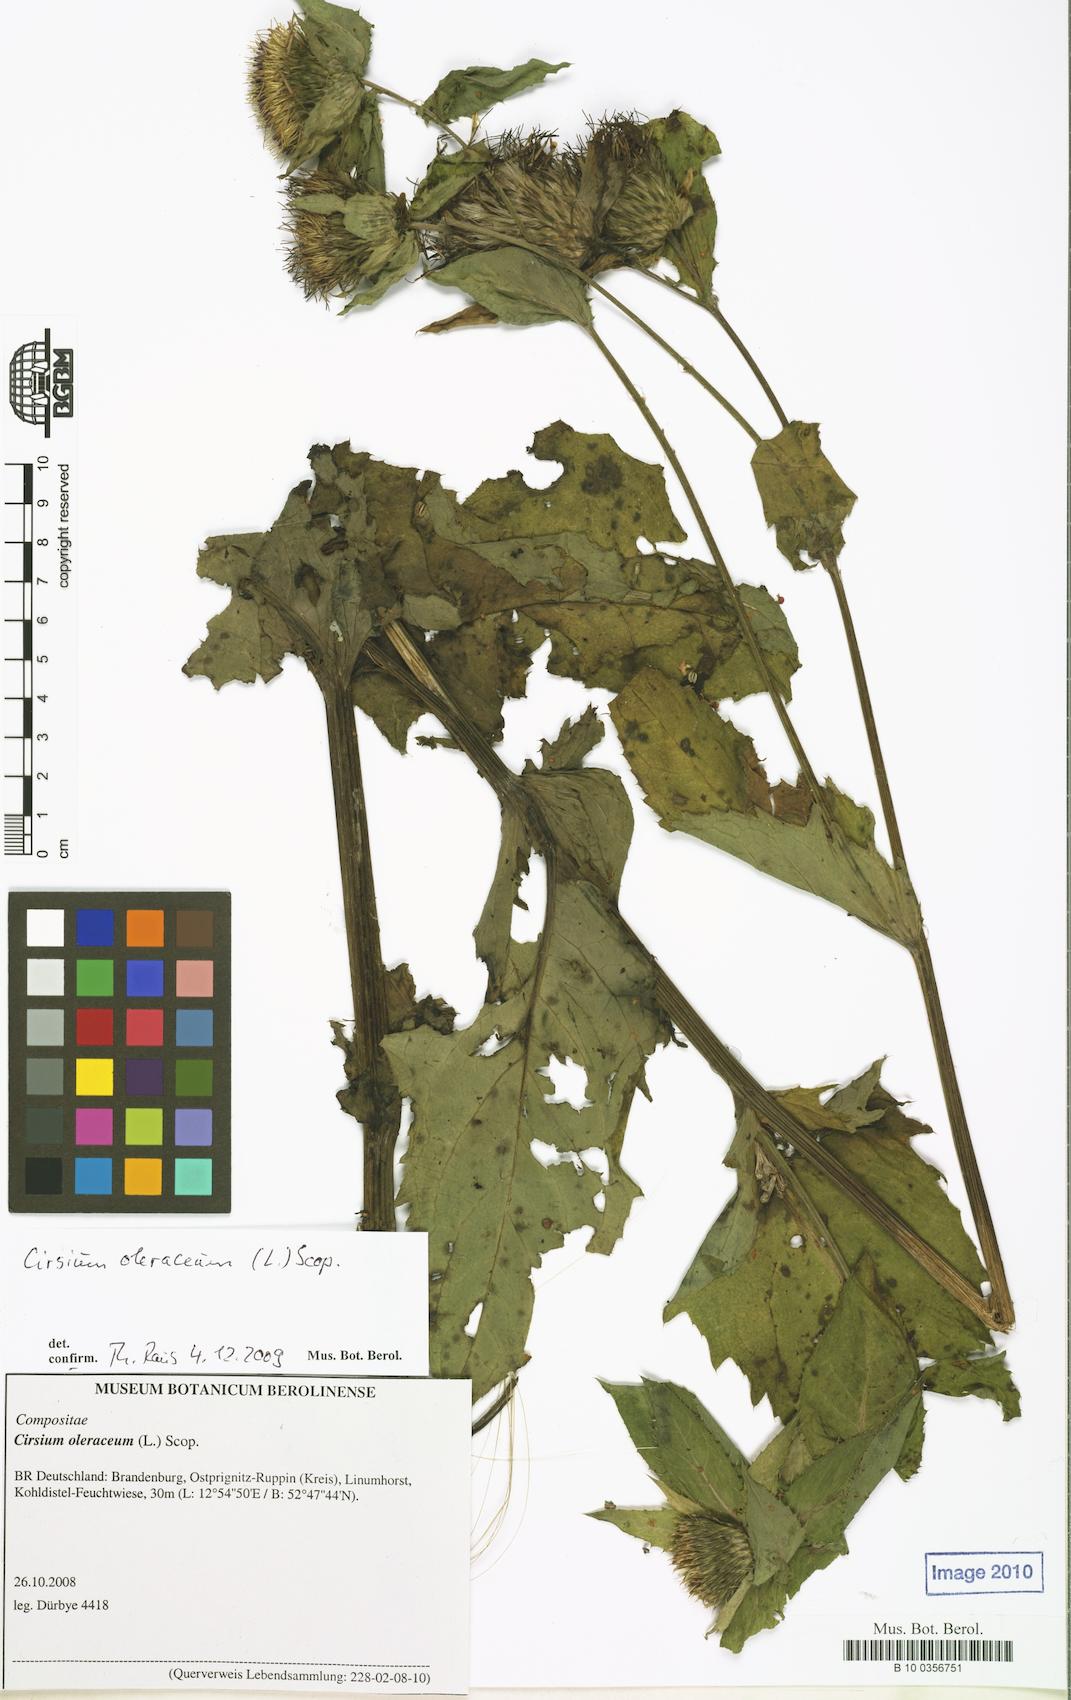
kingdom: Plantae
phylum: Tracheophyta
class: Magnoliopsida
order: Asterales
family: Asteraceae
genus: Cirsium
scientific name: Cirsium oleraceum
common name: Cabbage thistle
